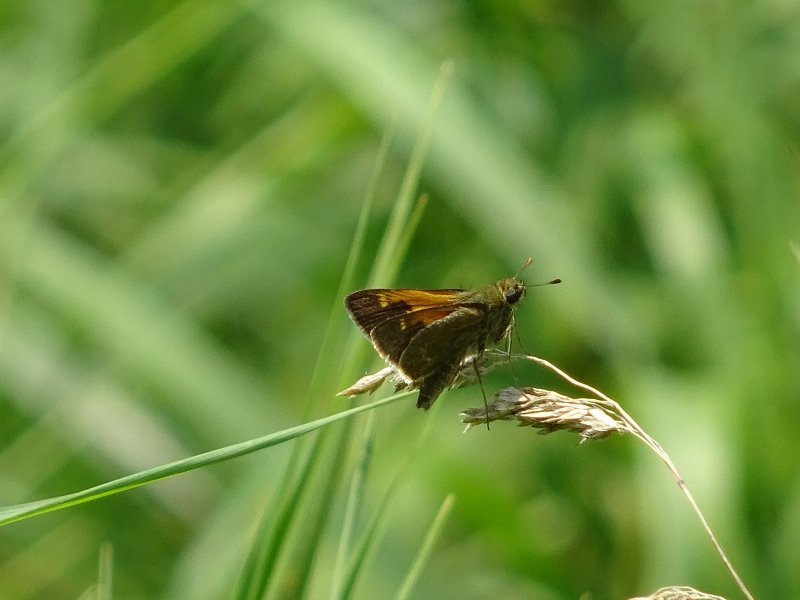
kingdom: Animalia
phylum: Arthropoda
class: Insecta
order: Lepidoptera
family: Hesperiidae
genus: Polites
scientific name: Polites themistocles
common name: Tawny-edged Skipper
